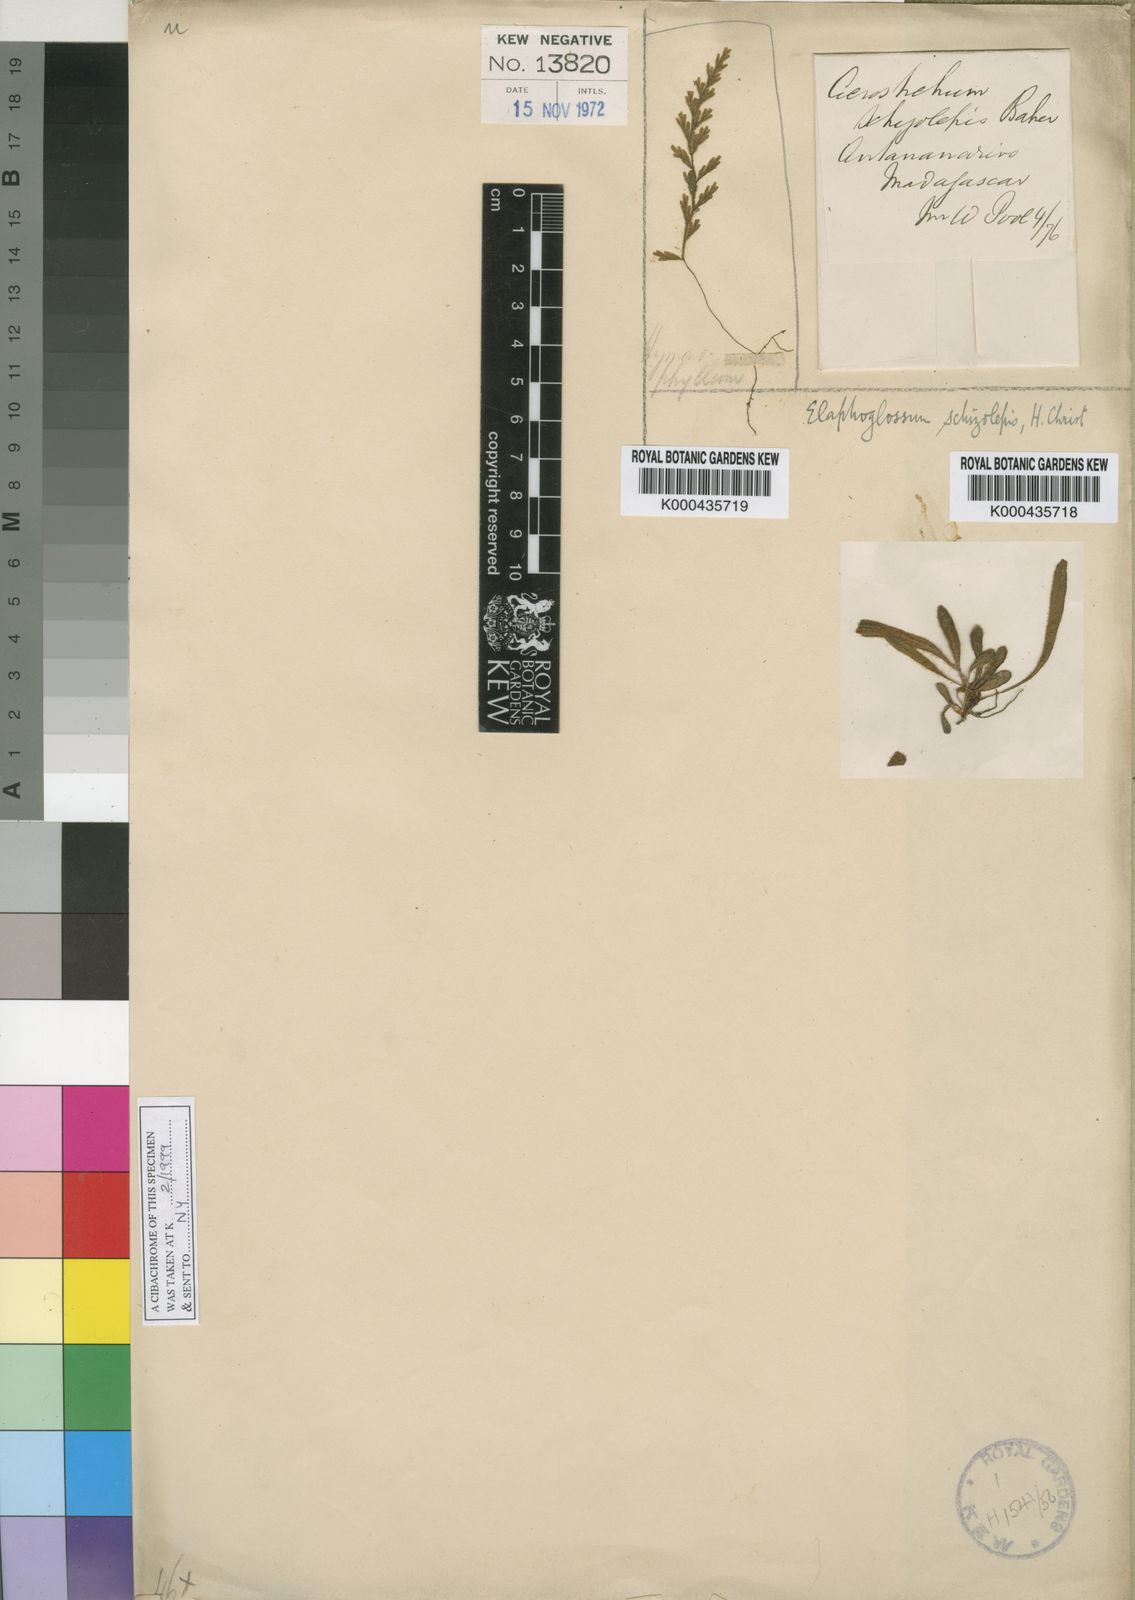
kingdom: Plantae
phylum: Tracheophyta
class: Polypodiopsida
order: Polypodiales
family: Dryopteridaceae
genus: Elaphoglossum
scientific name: Elaphoglossum schizolepis
